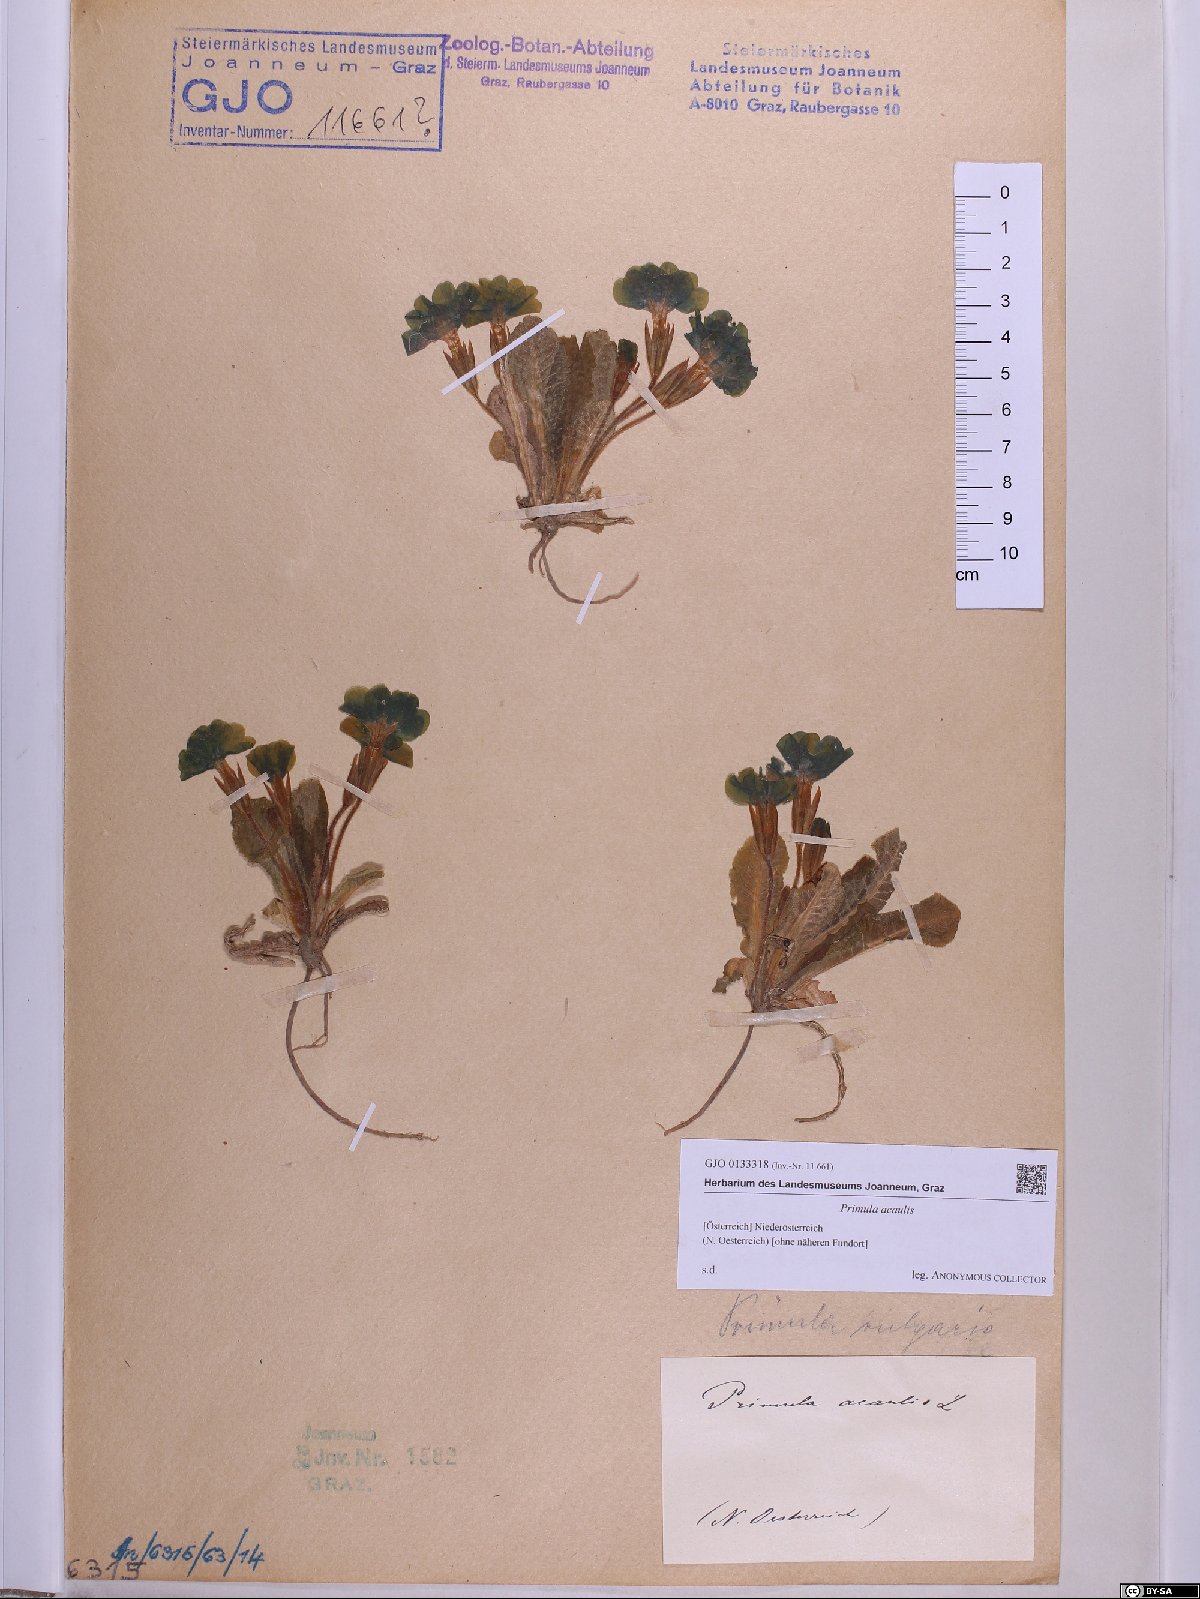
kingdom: Plantae
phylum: Tracheophyta
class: Magnoliopsida
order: Ericales
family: Primulaceae
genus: Primula
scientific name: Primula vulgaris
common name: Primrose
